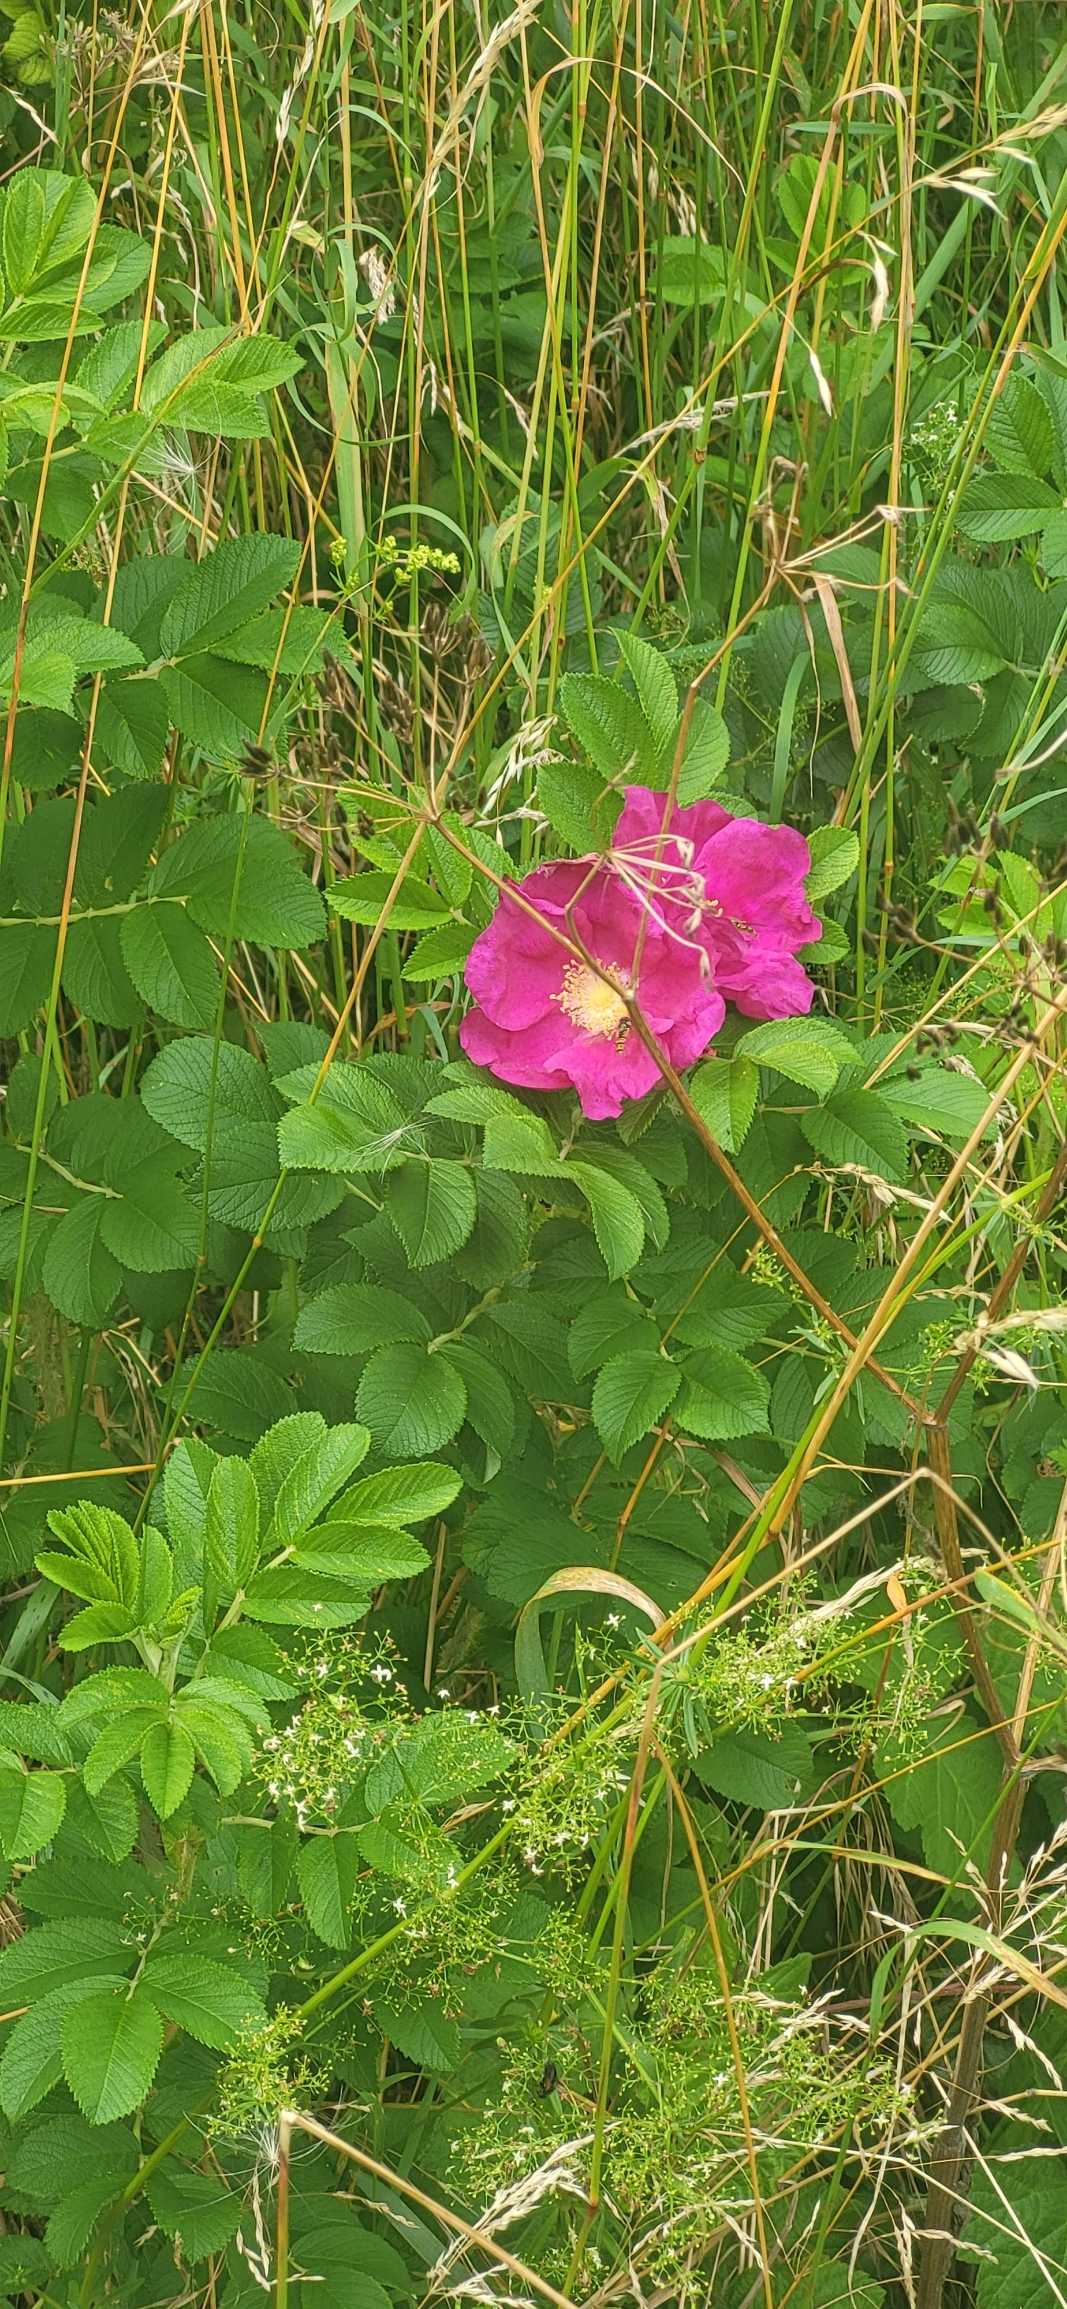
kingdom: Plantae
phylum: Tracheophyta
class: Magnoliopsida
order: Rosales
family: Rosaceae
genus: Rosa
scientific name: Rosa rugosa
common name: Rynket rose
